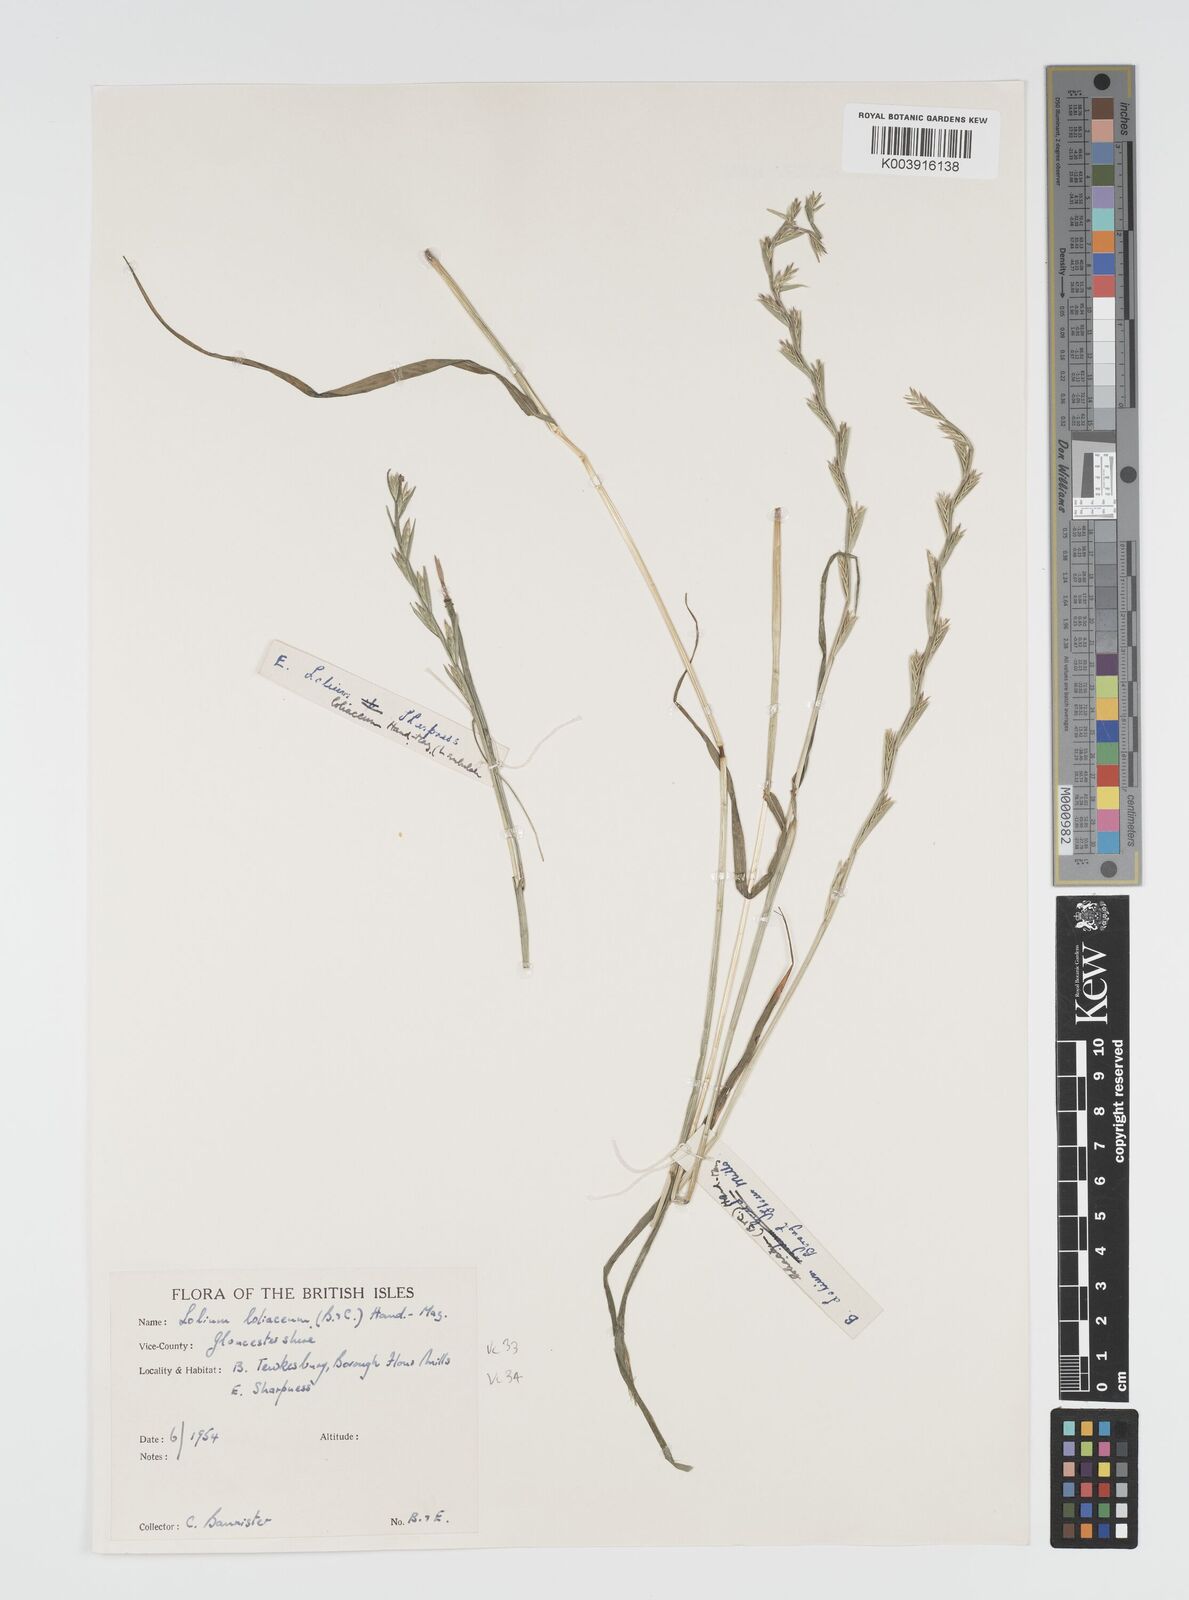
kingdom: Plantae
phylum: Tracheophyta
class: Liliopsida
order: Poales
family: Poaceae
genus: Lolium
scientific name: Lolium rigidum
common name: Wimmera ryegrass
